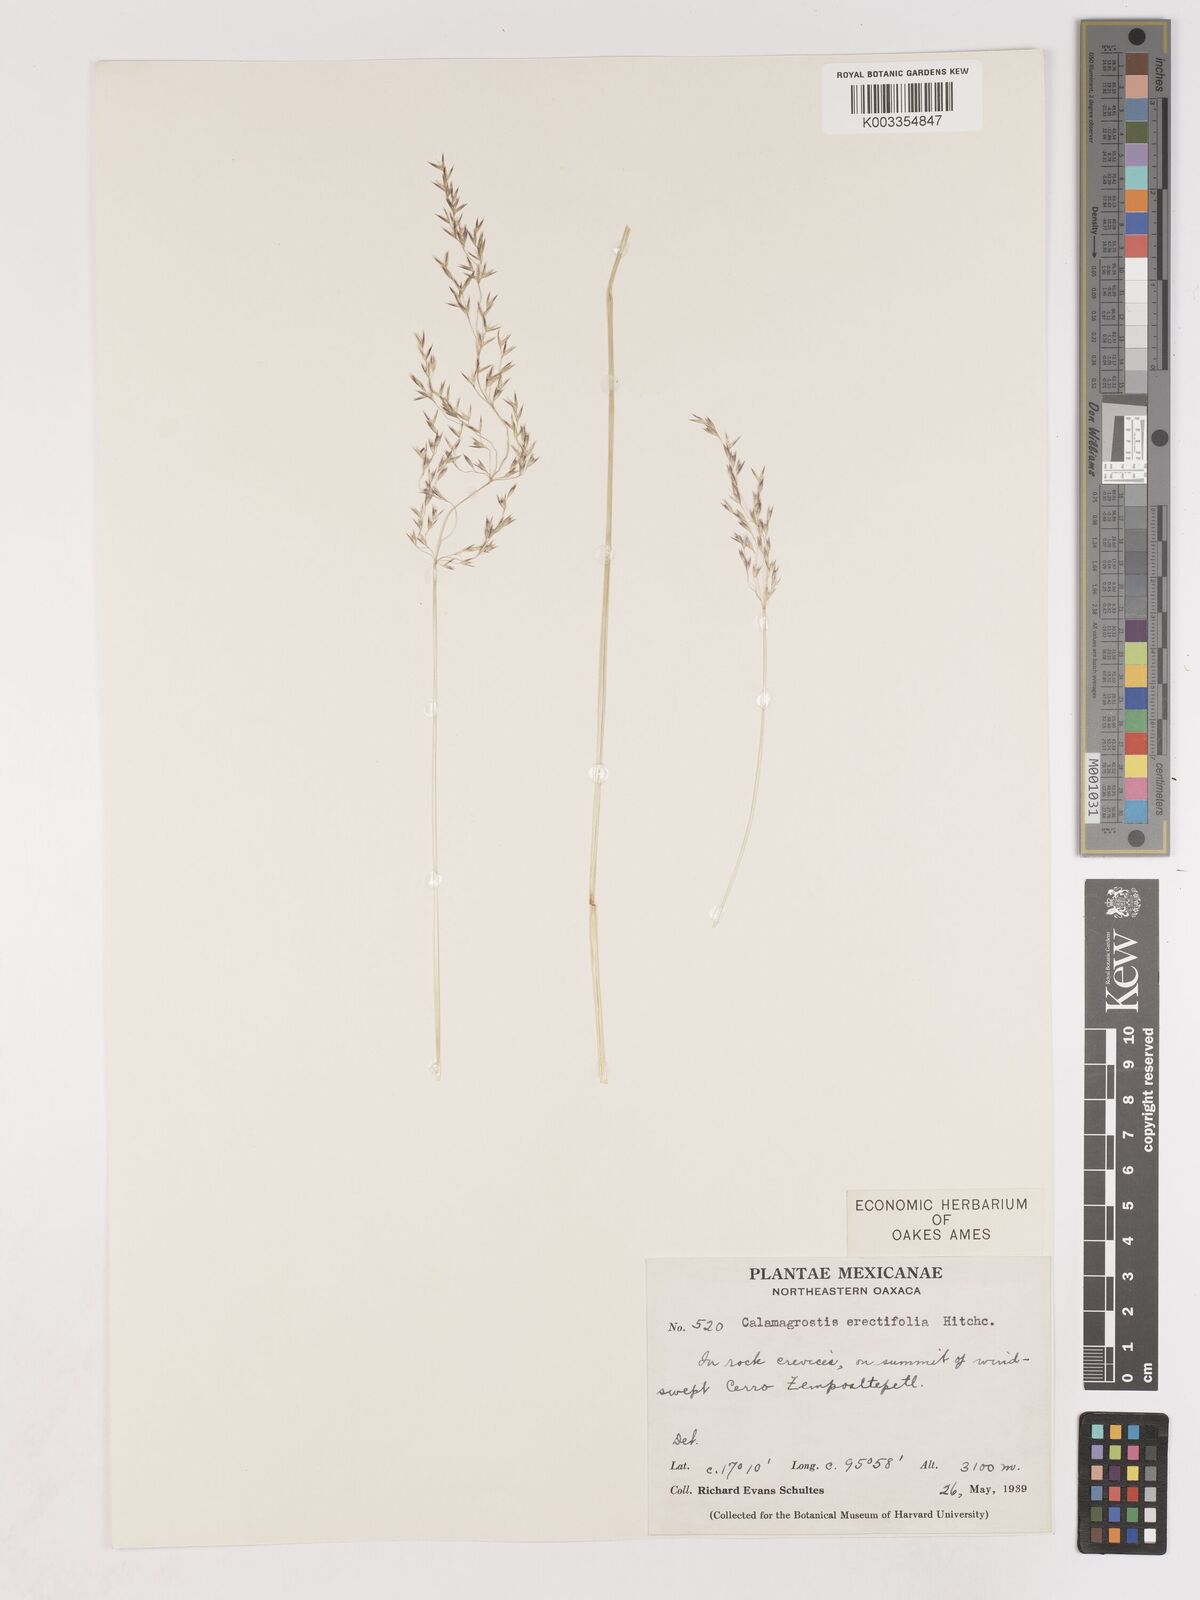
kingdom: Plantae
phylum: Tracheophyta
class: Liliopsida
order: Poales
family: Poaceae
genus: Peyritschia
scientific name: Peyritschia eriantha
